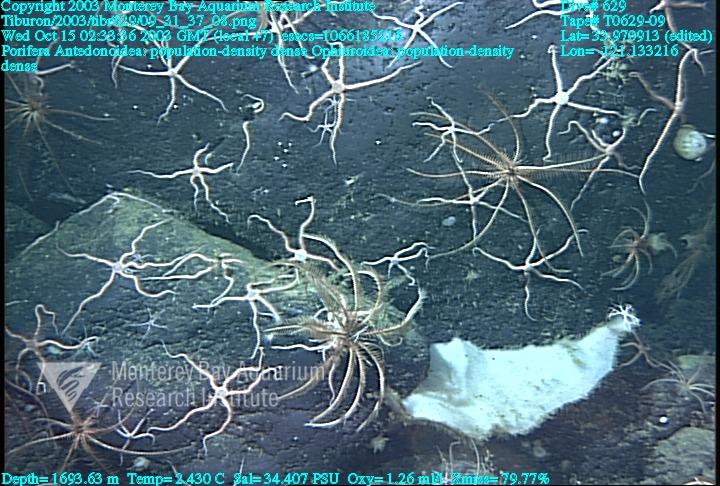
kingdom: Animalia
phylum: Porifera
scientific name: Porifera
